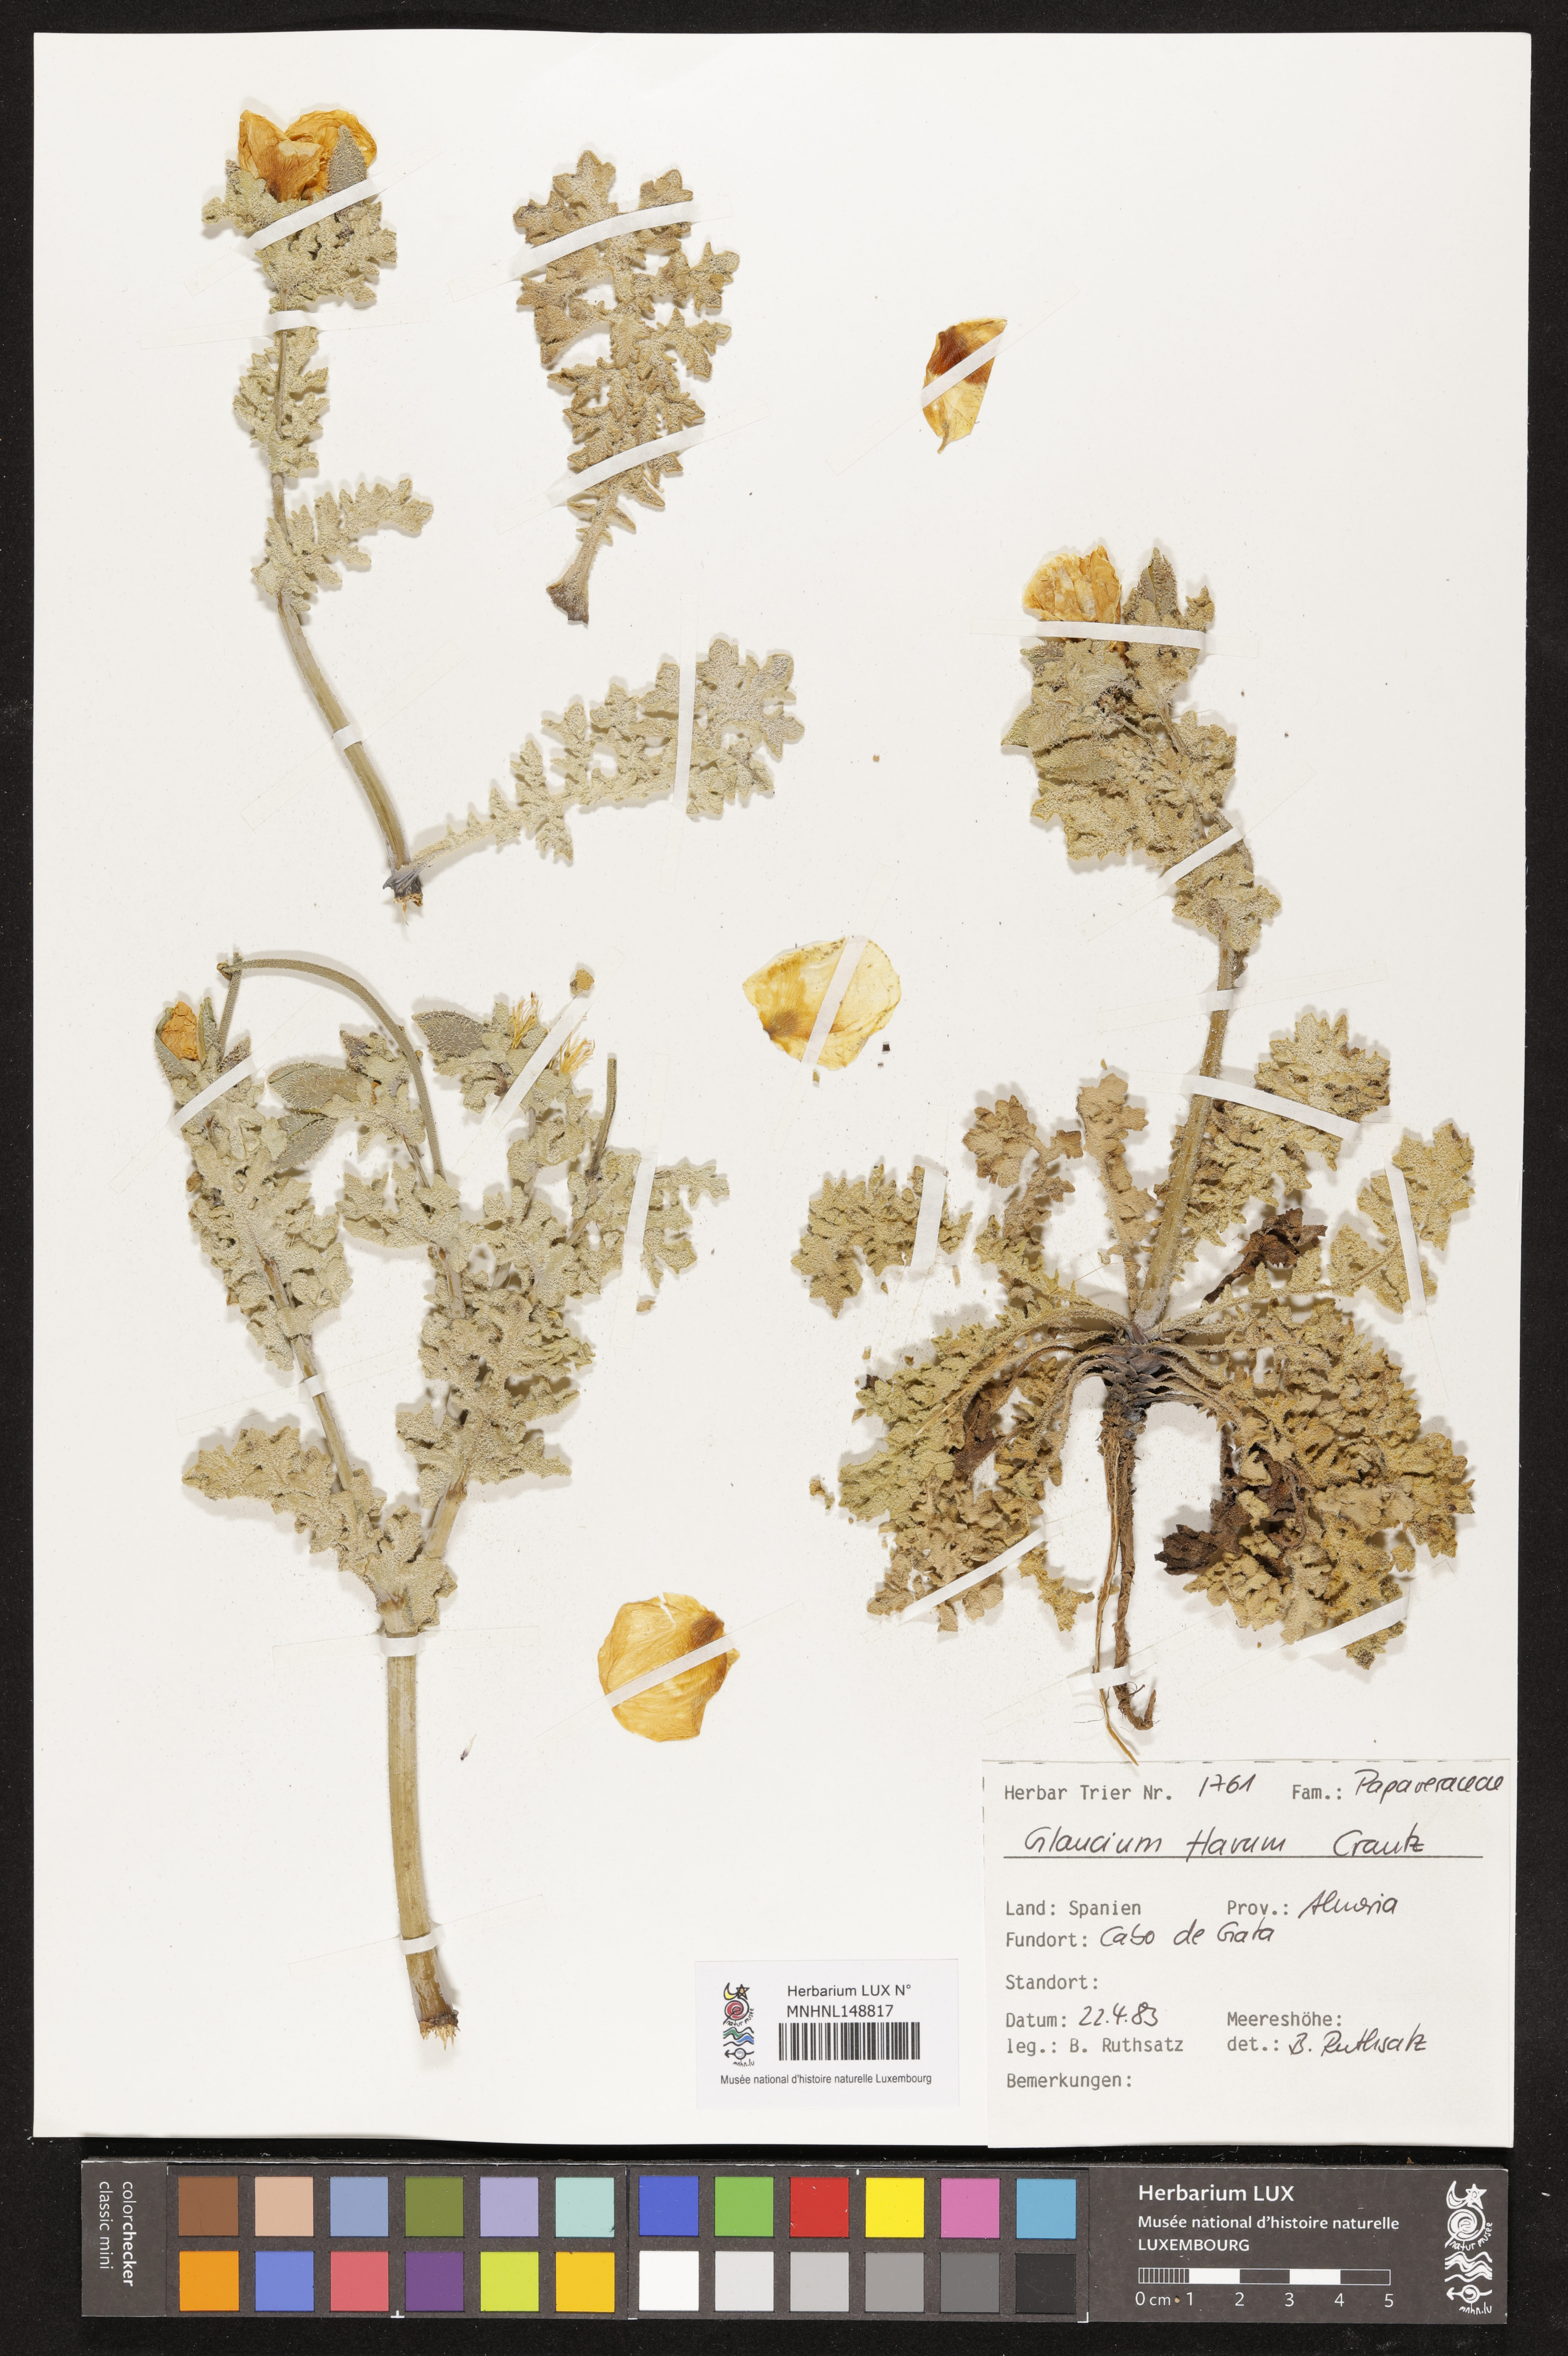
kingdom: Plantae
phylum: Tracheophyta
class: Magnoliopsida
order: Ranunculales
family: Papaveraceae
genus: Glaucium
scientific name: Glaucium flavum
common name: Yellow horned-poppy
